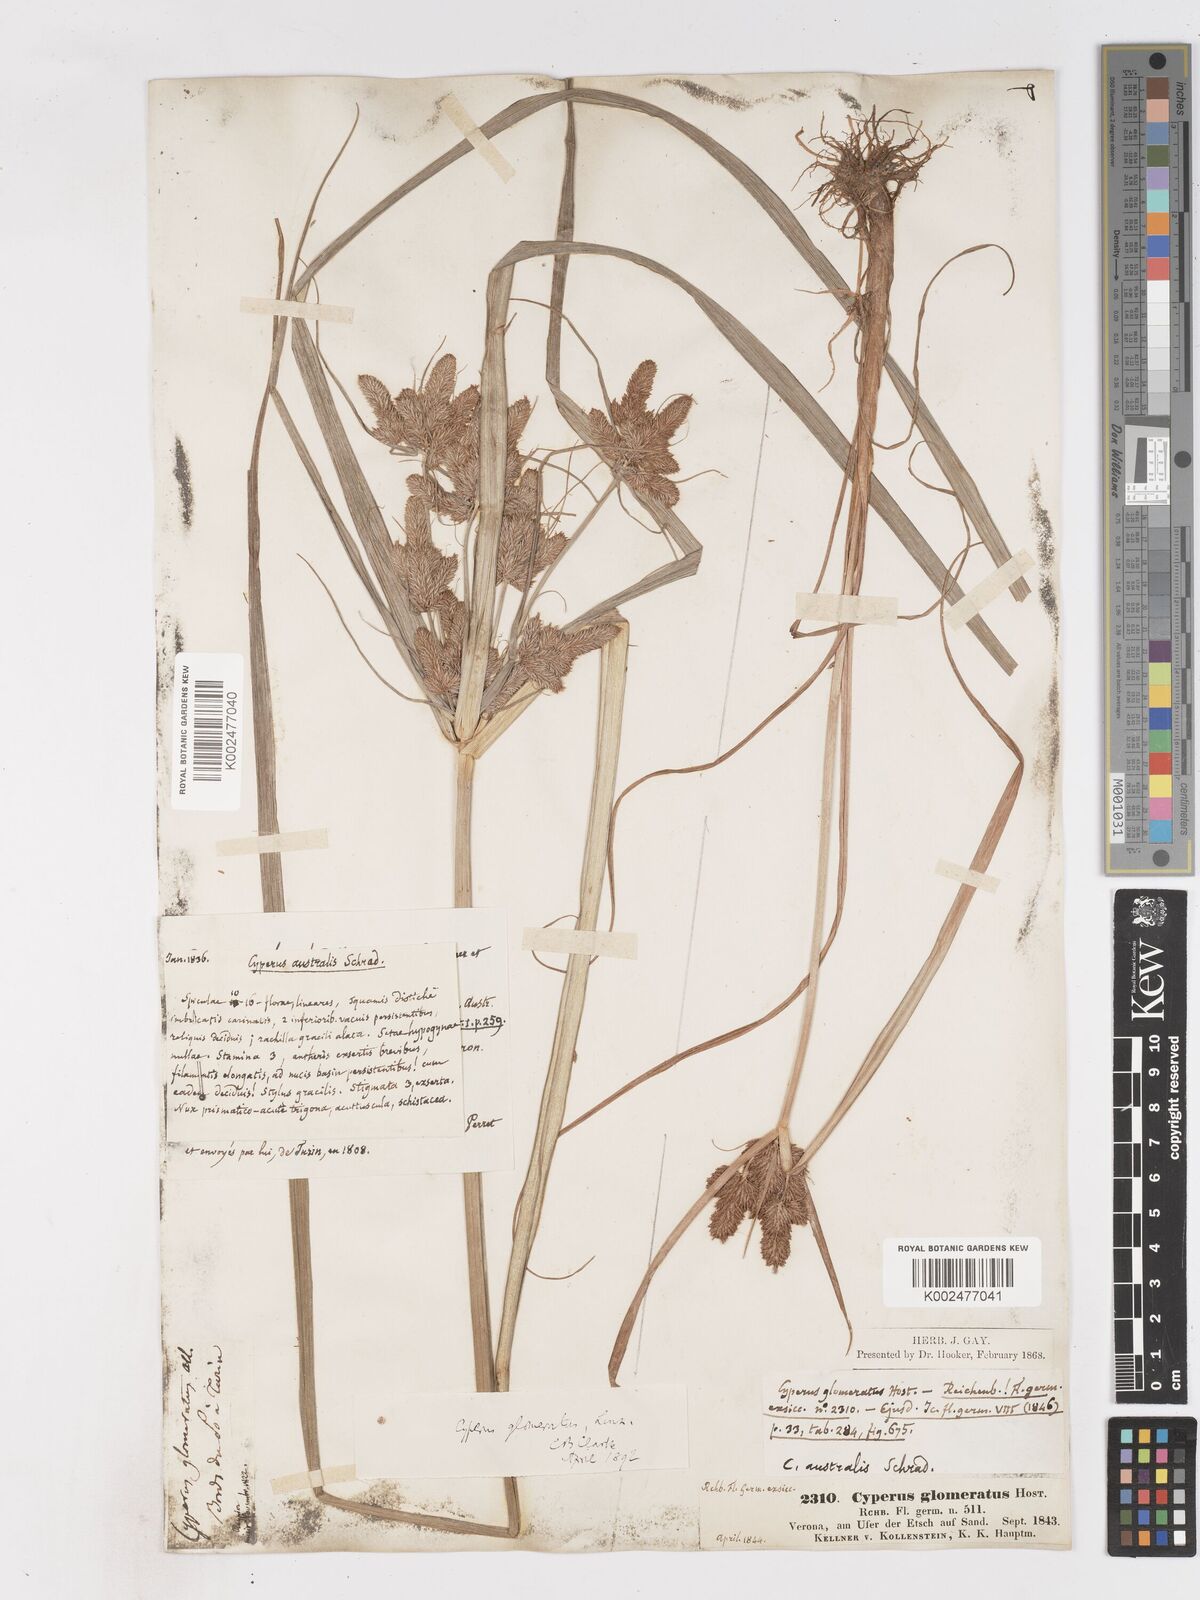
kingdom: Plantae
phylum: Tracheophyta
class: Liliopsida
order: Poales
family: Cyperaceae
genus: Cyperus
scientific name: Cyperus glomeratus
